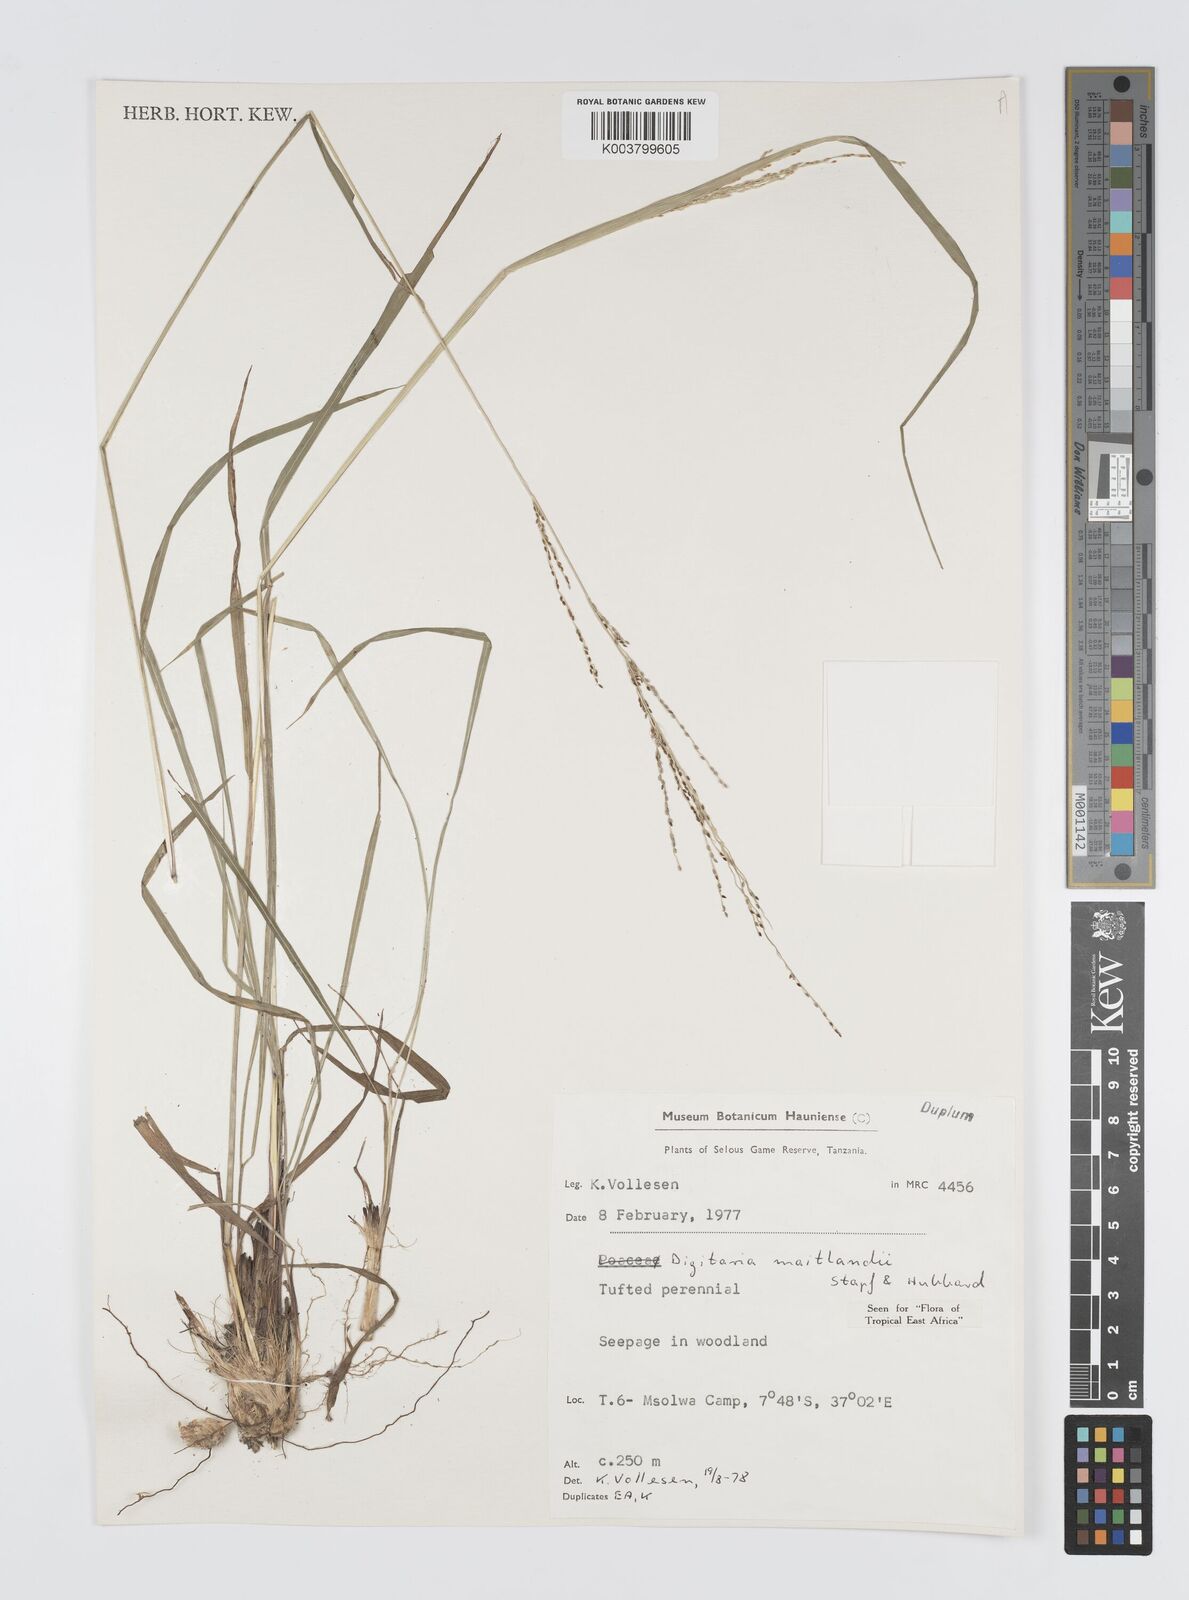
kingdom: Plantae
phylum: Tracheophyta
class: Liliopsida
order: Poales
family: Poaceae
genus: Digitaria
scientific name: Digitaria maitlandii
